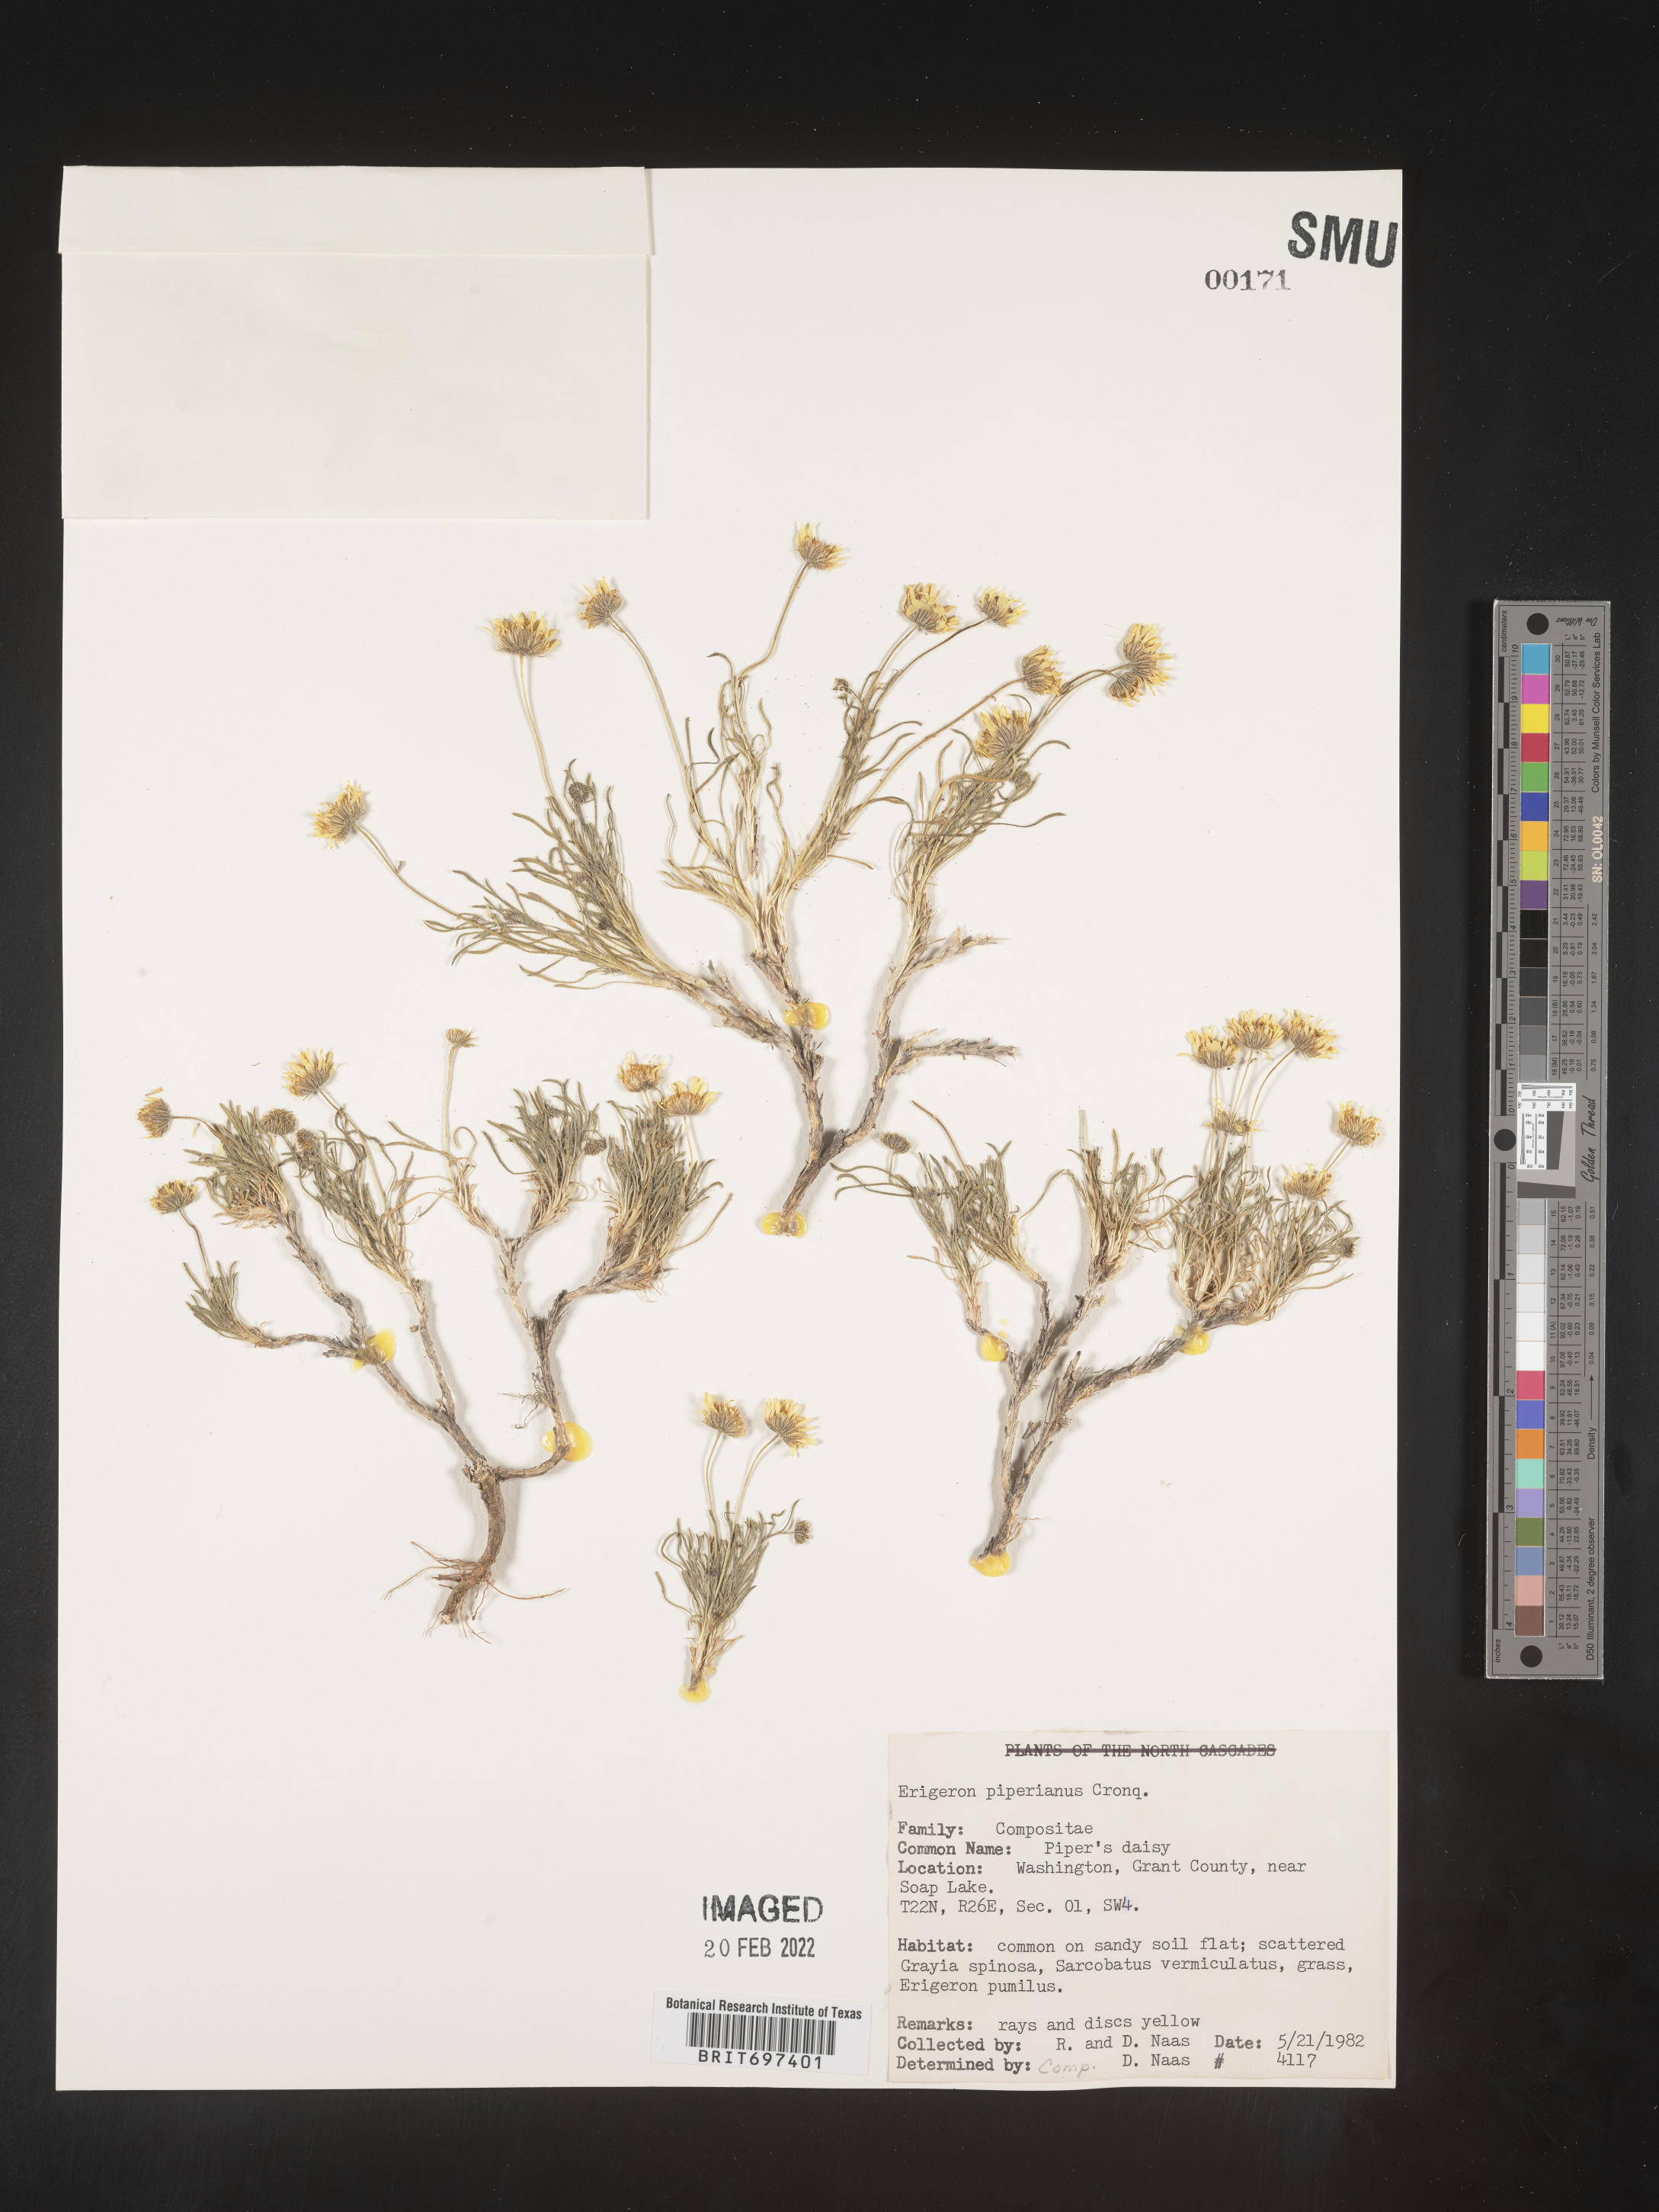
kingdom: Plantae
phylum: Tracheophyta
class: Magnoliopsida
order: Asterales
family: Asteraceae
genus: Erigeron
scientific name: Erigeron piperianus
